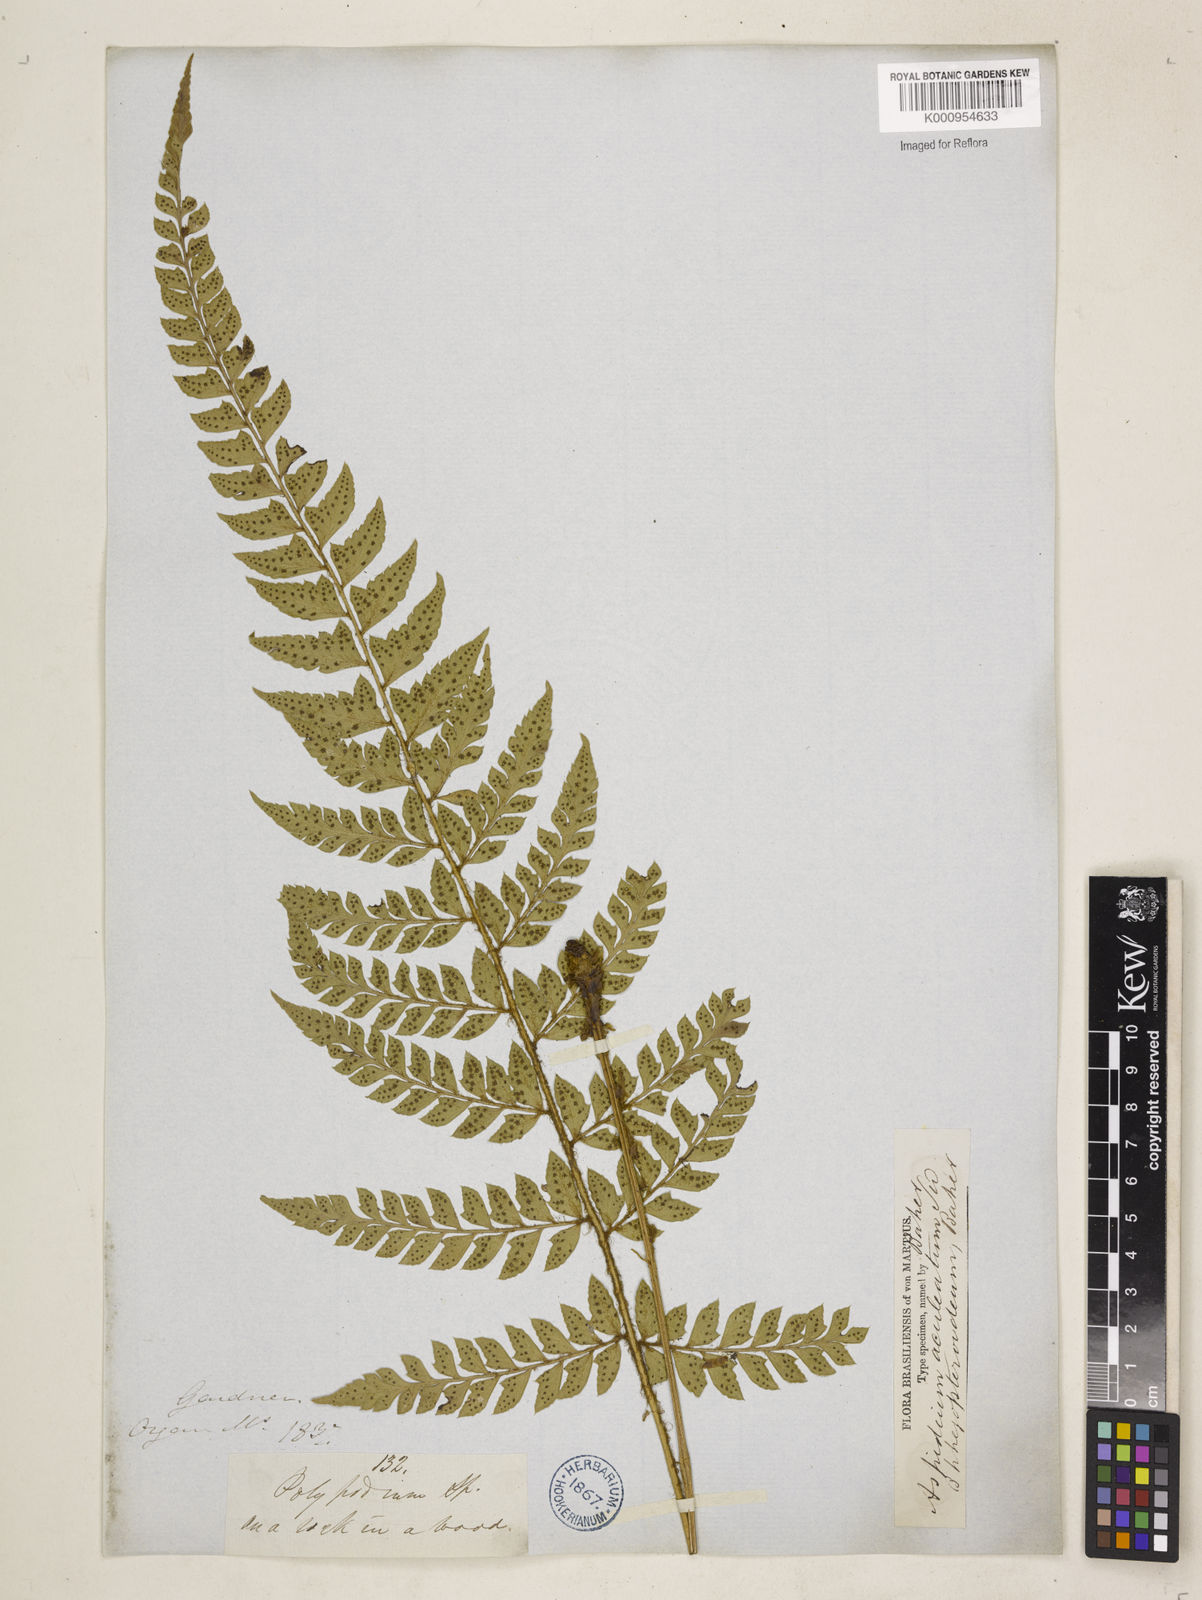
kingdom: Plantae
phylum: Tracheophyta
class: Polypodiopsida
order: Polypodiales
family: Dryopteridaceae
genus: Polystichum
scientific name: Polystichum
